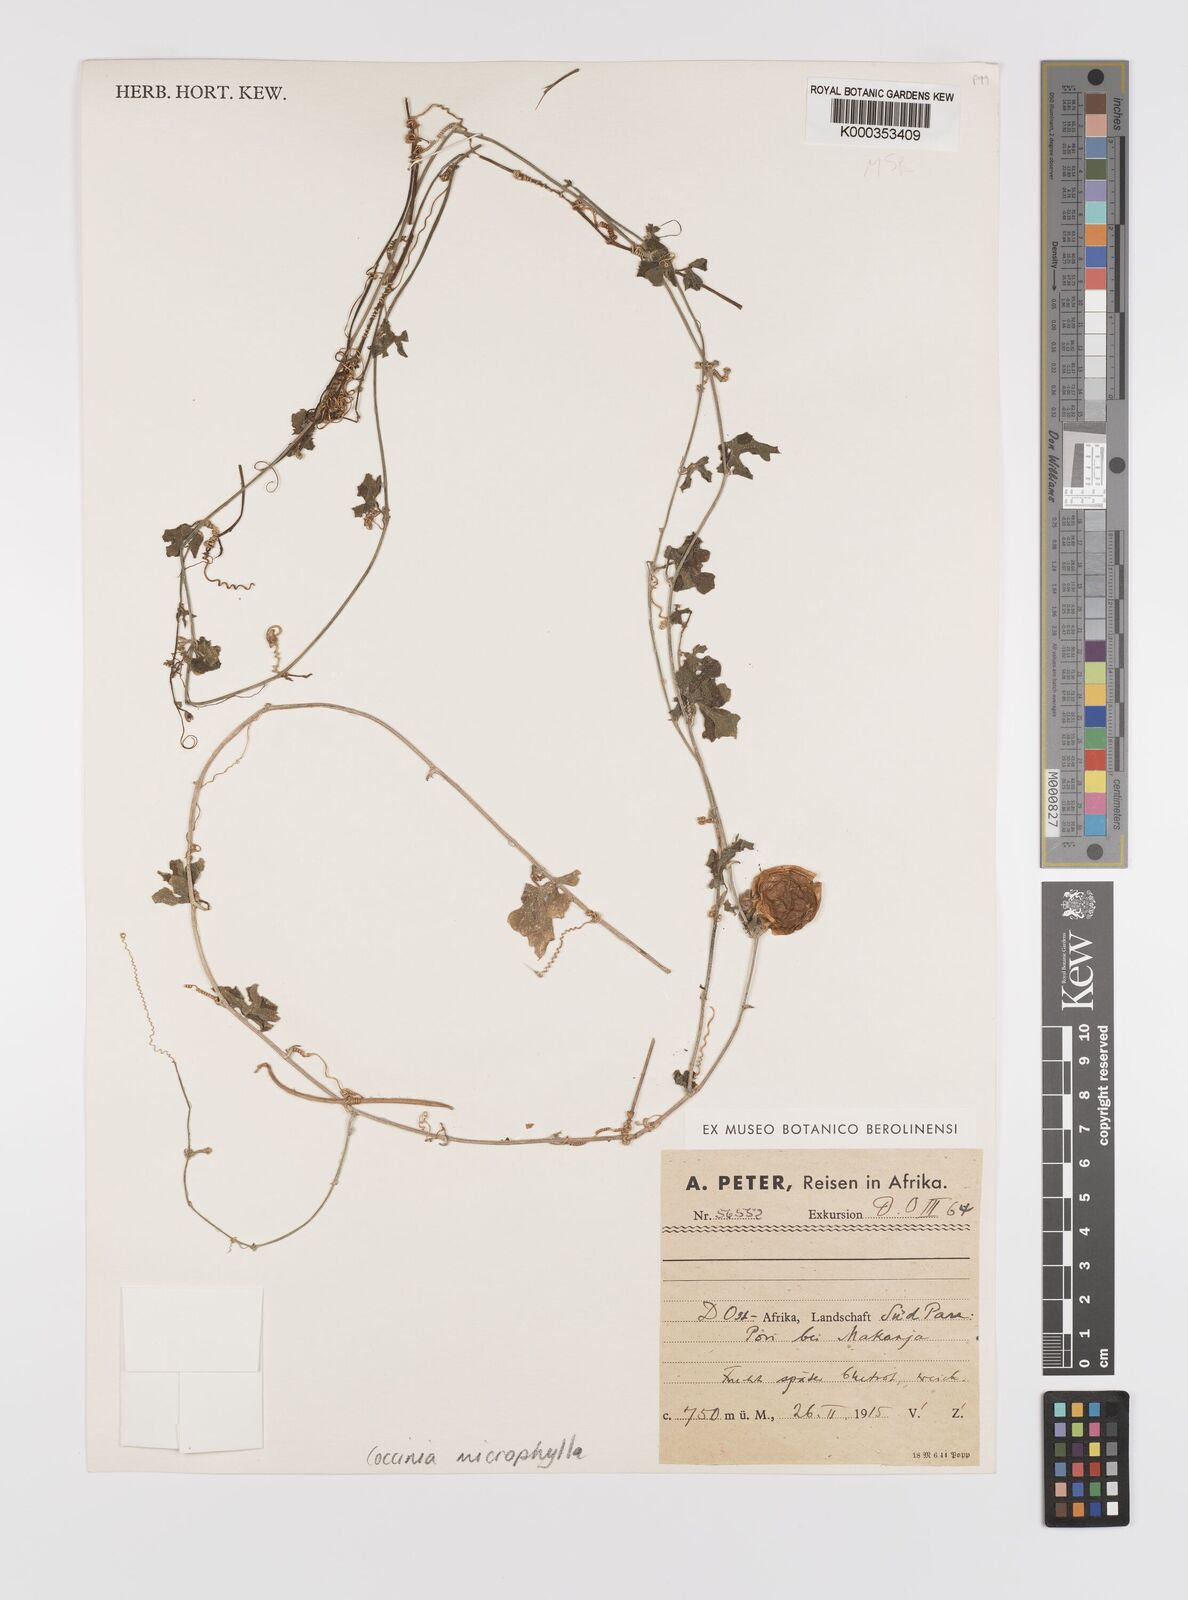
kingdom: Plantae
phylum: Tracheophyta
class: Magnoliopsida
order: Cucurbitales
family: Cucurbitaceae
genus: Coccinia
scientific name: Coccinia microphylla
